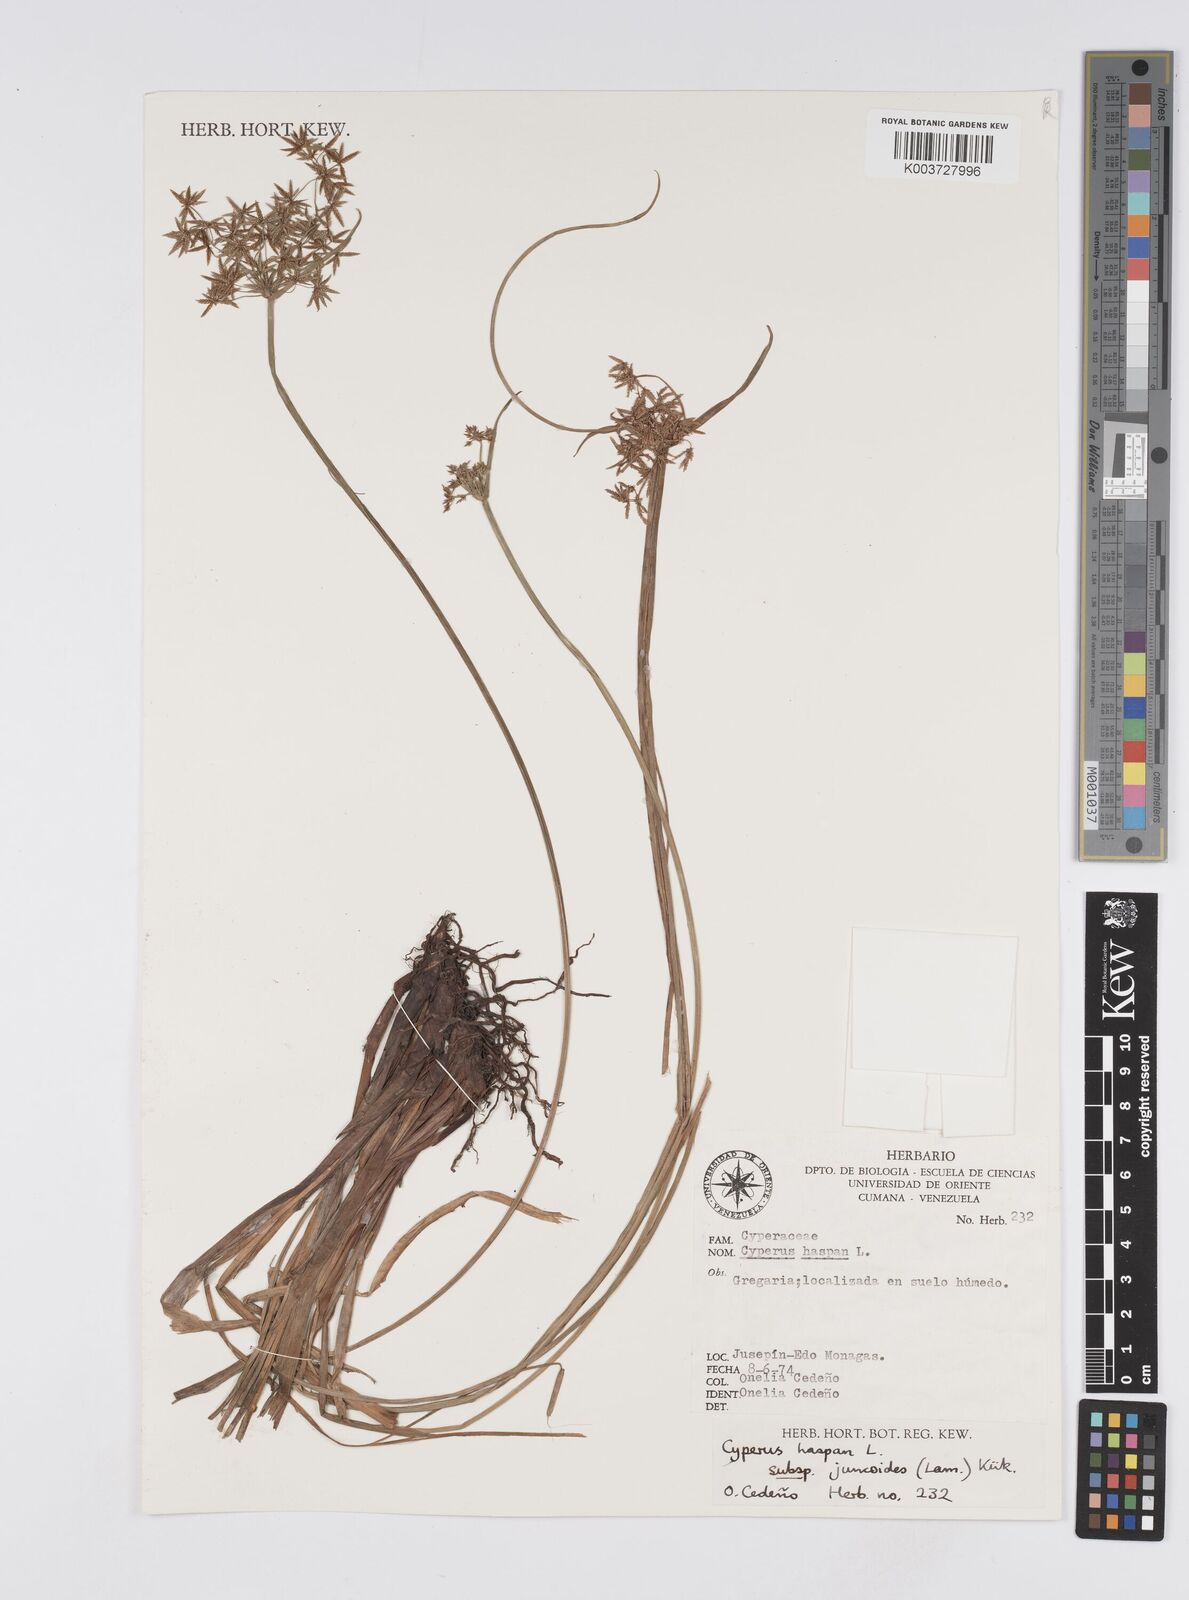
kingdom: Plantae
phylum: Tracheophyta
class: Liliopsida
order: Poales
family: Cyperaceae
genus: Cyperus
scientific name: Cyperus haspan
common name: Haspan flatsedge
